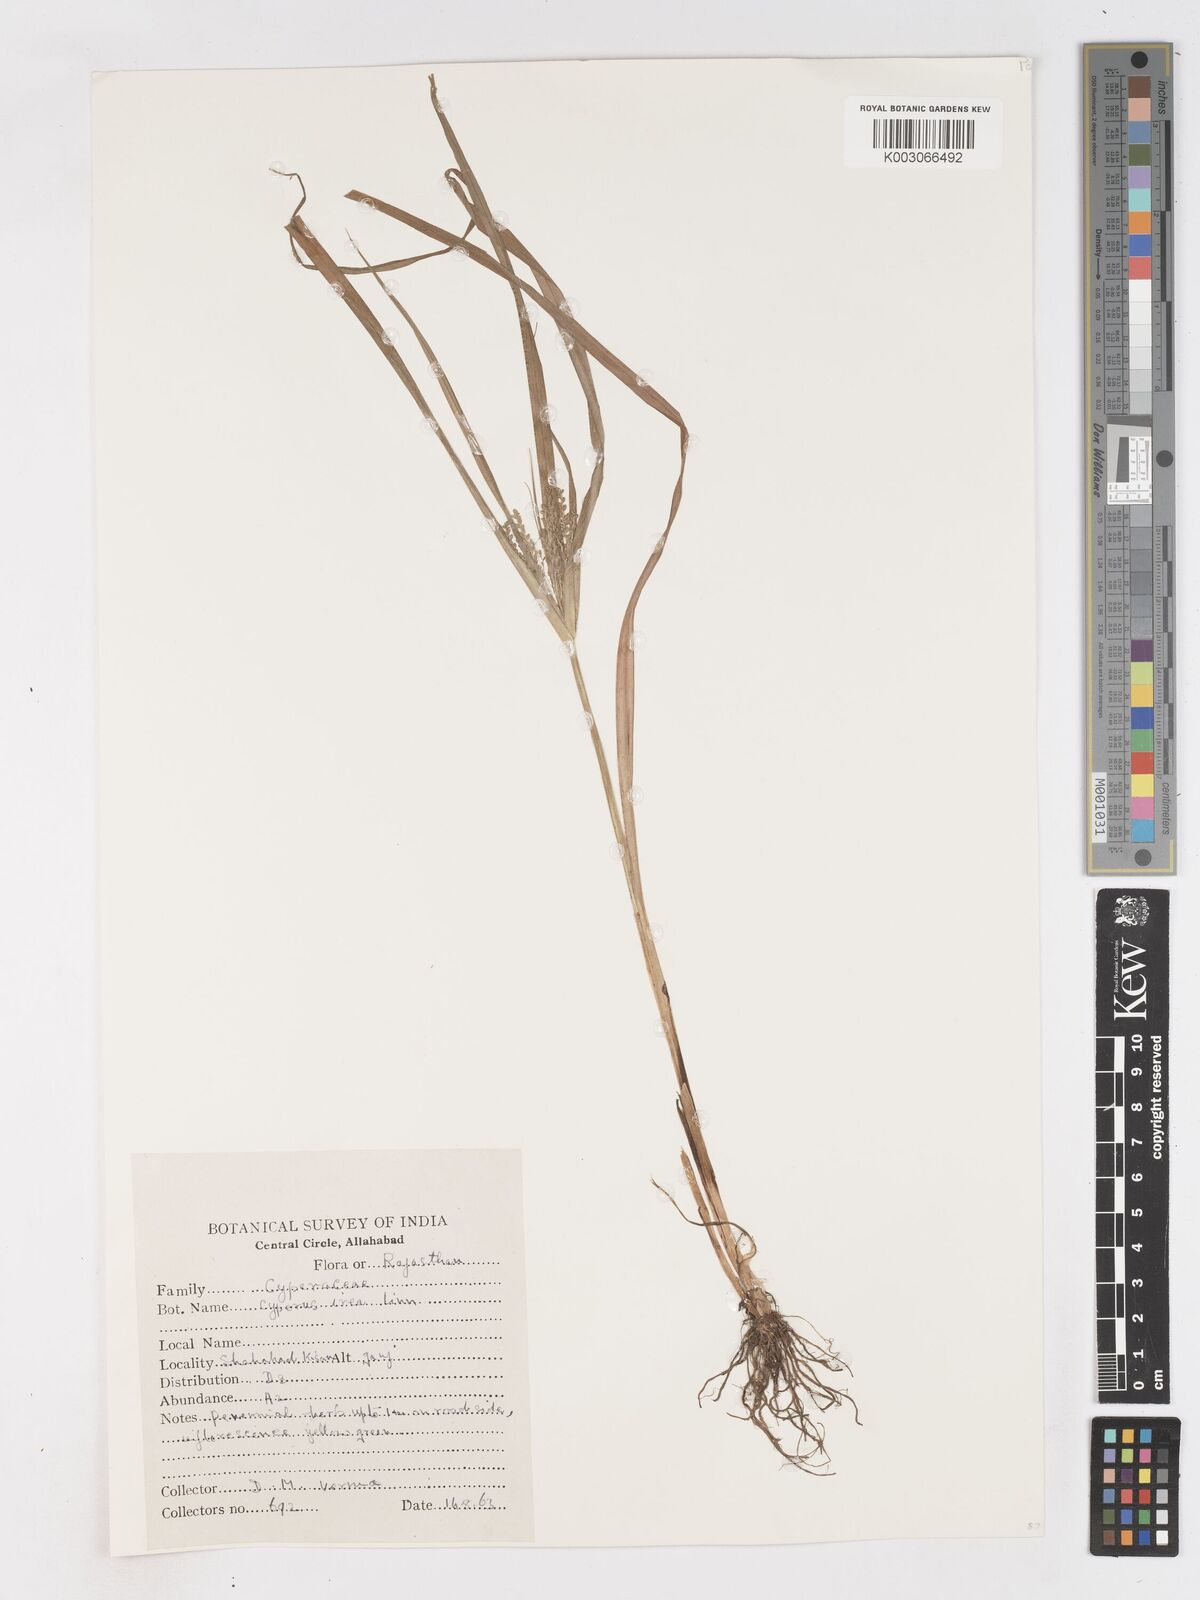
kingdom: Plantae
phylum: Tracheophyta
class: Liliopsida
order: Poales
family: Cyperaceae
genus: Cyperus
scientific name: Cyperus iria
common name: Ricefield flatsedge
